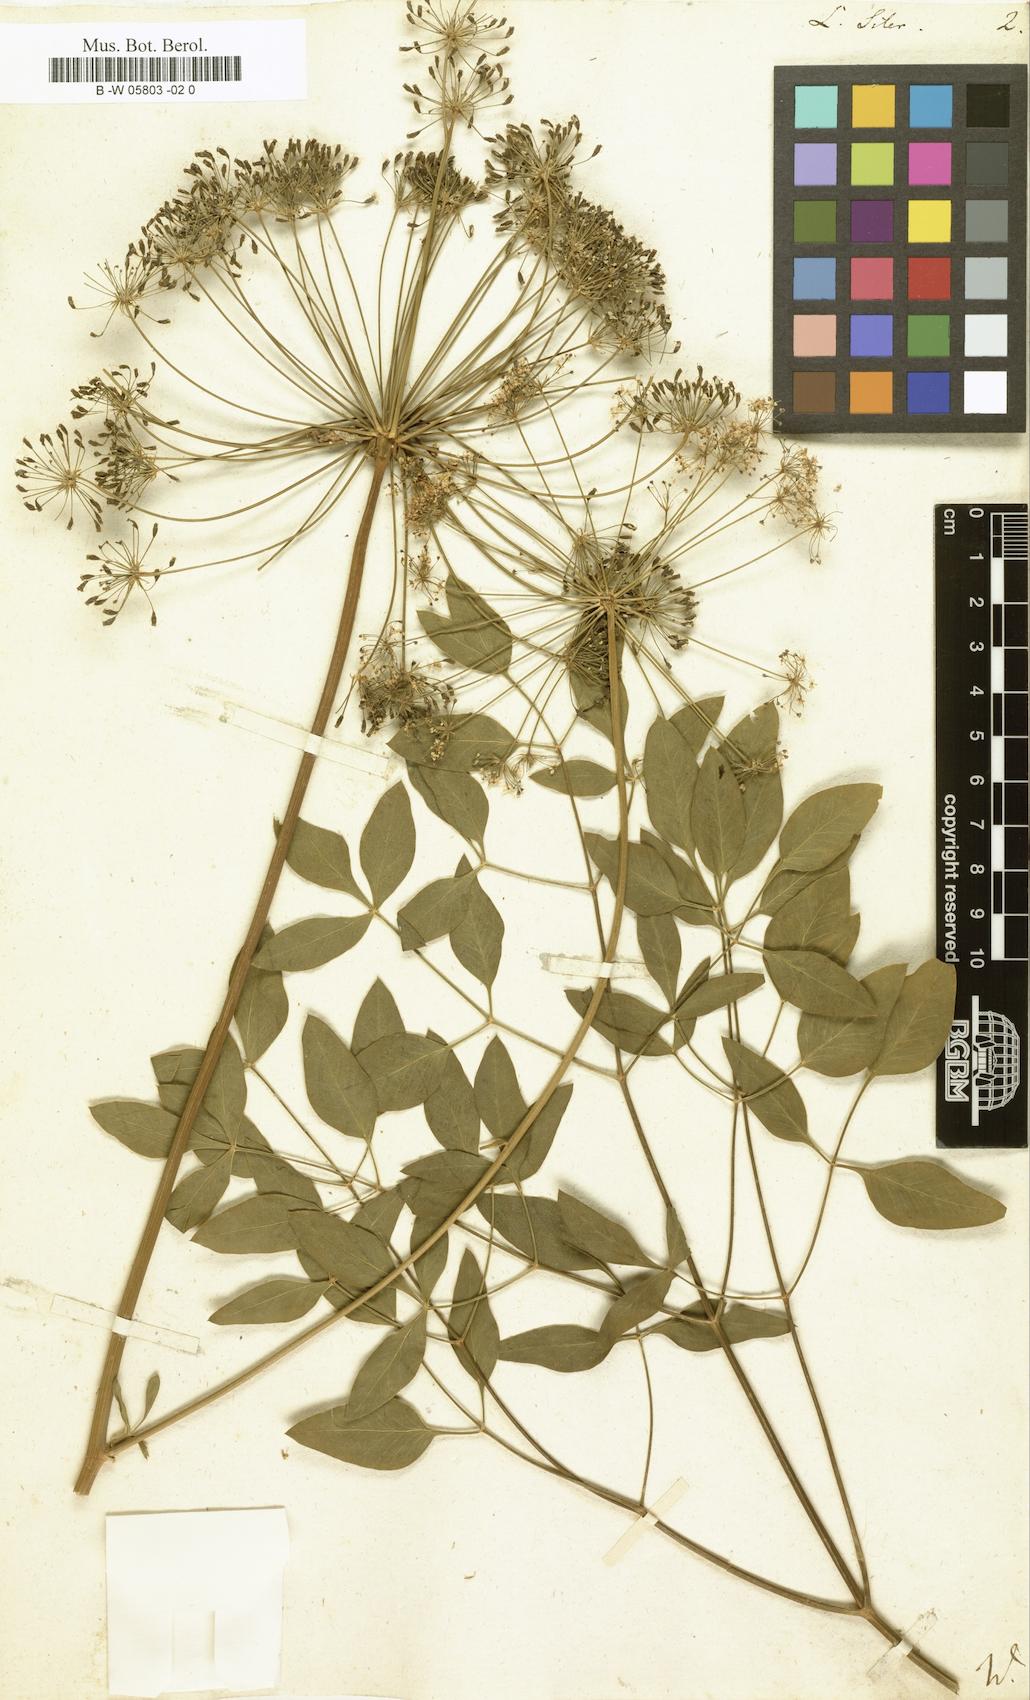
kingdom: Plantae
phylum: Tracheophyta
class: Magnoliopsida
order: Apiales
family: Apiaceae
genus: Siler
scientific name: Siler montanum
